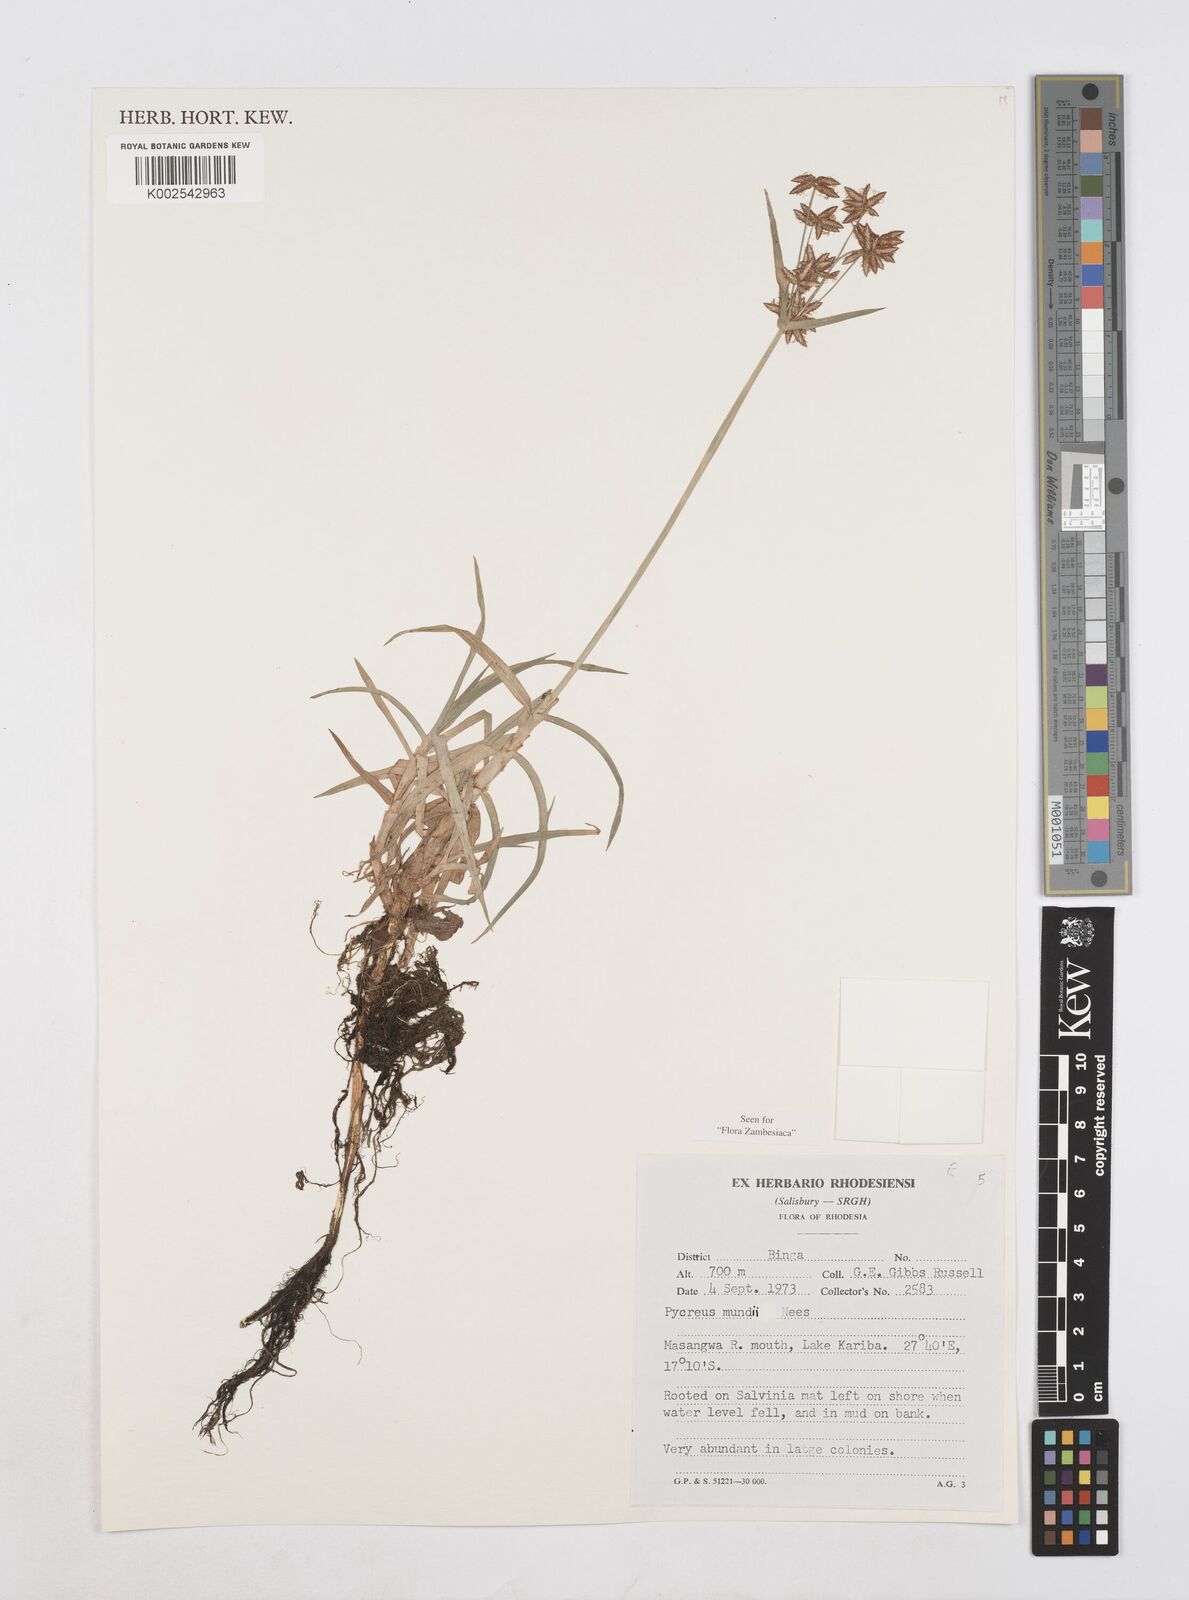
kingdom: Plantae
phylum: Tracheophyta
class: Liliopsida
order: Poales
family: Cyperaceae
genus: Cyperus
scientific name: Cyperus mundii
